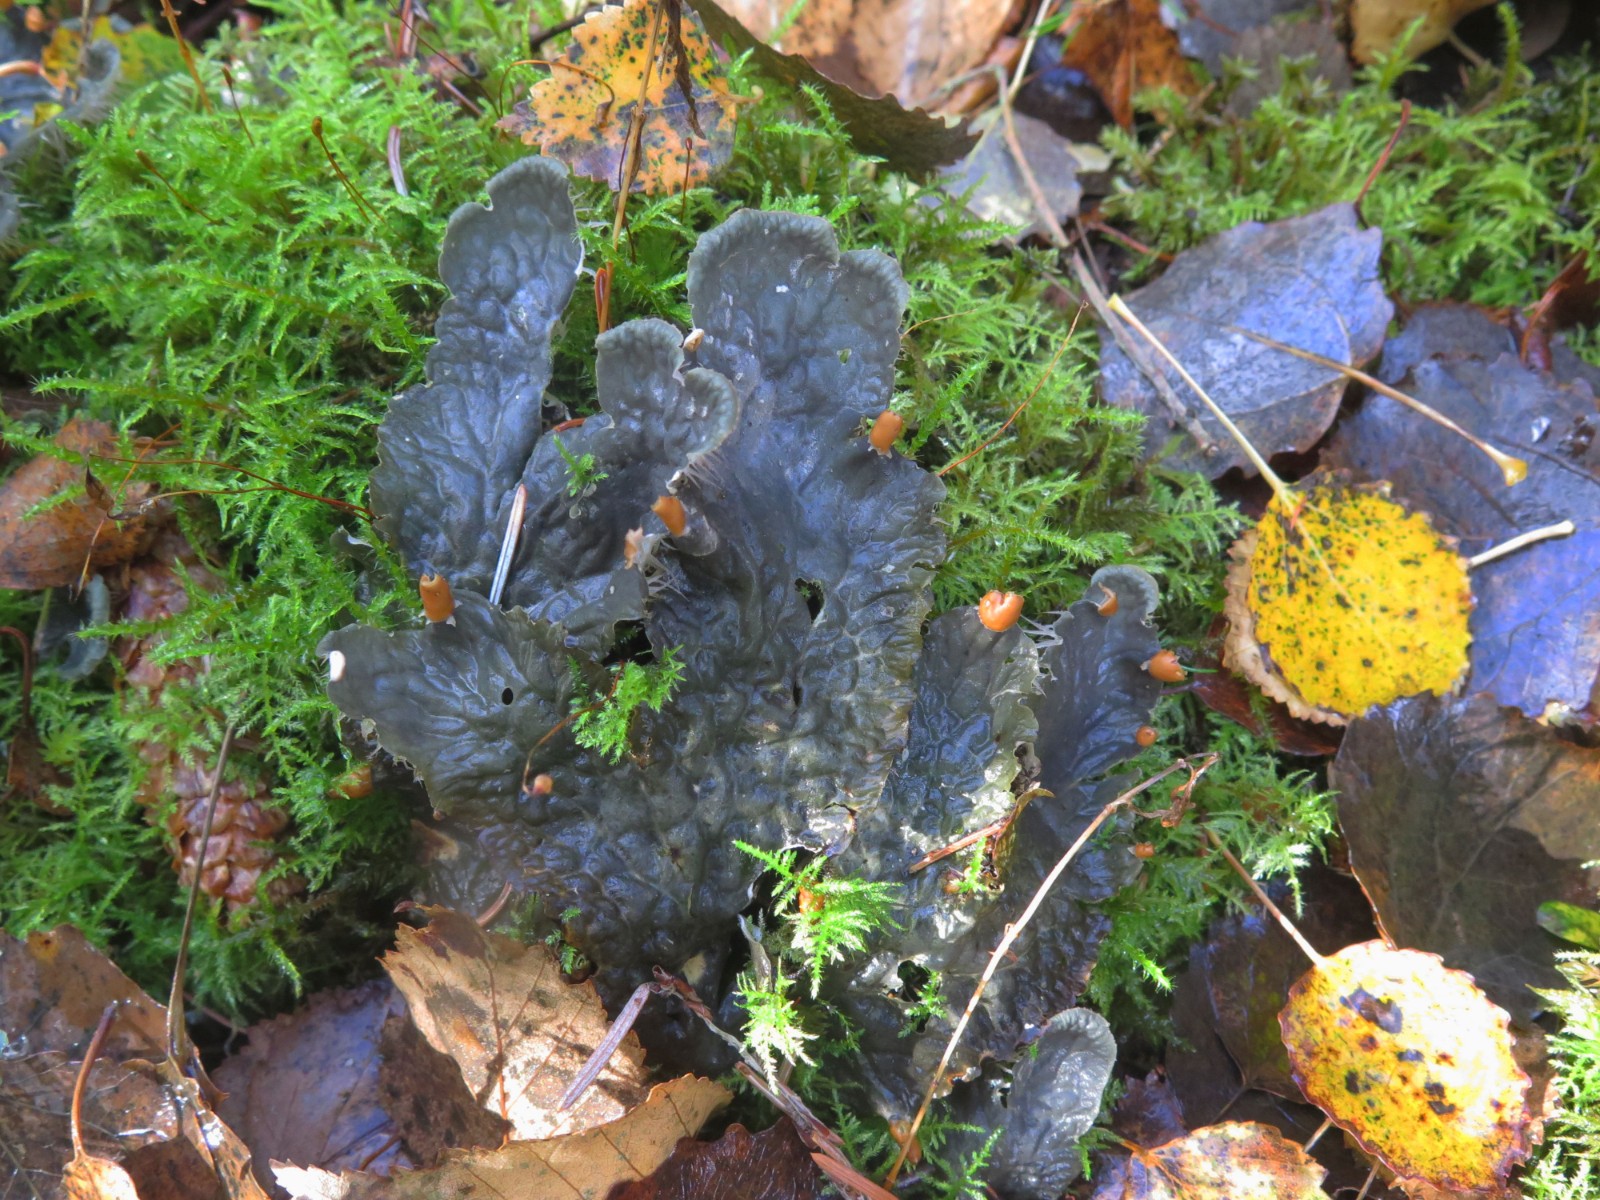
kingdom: Fungi
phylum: Ascomycota
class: Lecanoromycetes
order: Peltigerales
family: Peltigeraceae
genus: Peltigera
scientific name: Peltigera membranacea
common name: tynd skjoldlav
